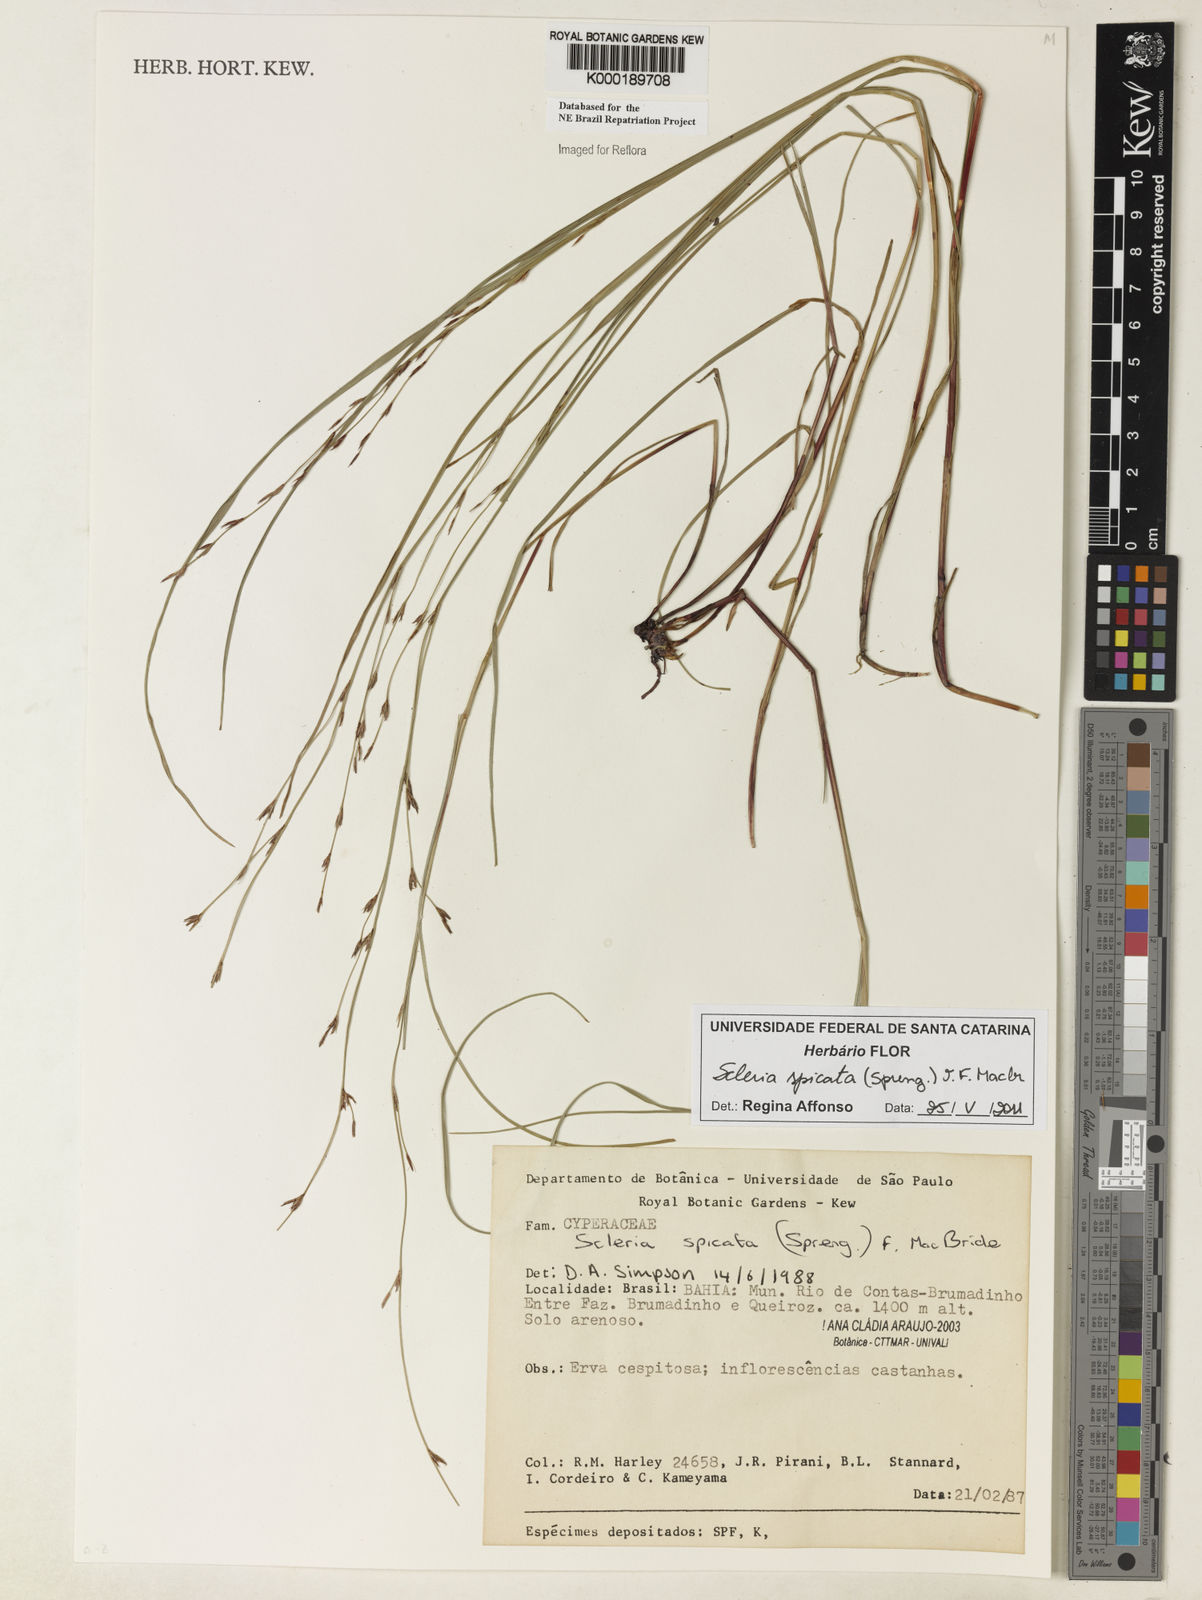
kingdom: Plantae
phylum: Tracheophyta
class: Liliopsida
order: Poales
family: Cyperaceae
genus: Scleria
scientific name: Scleria spicata
